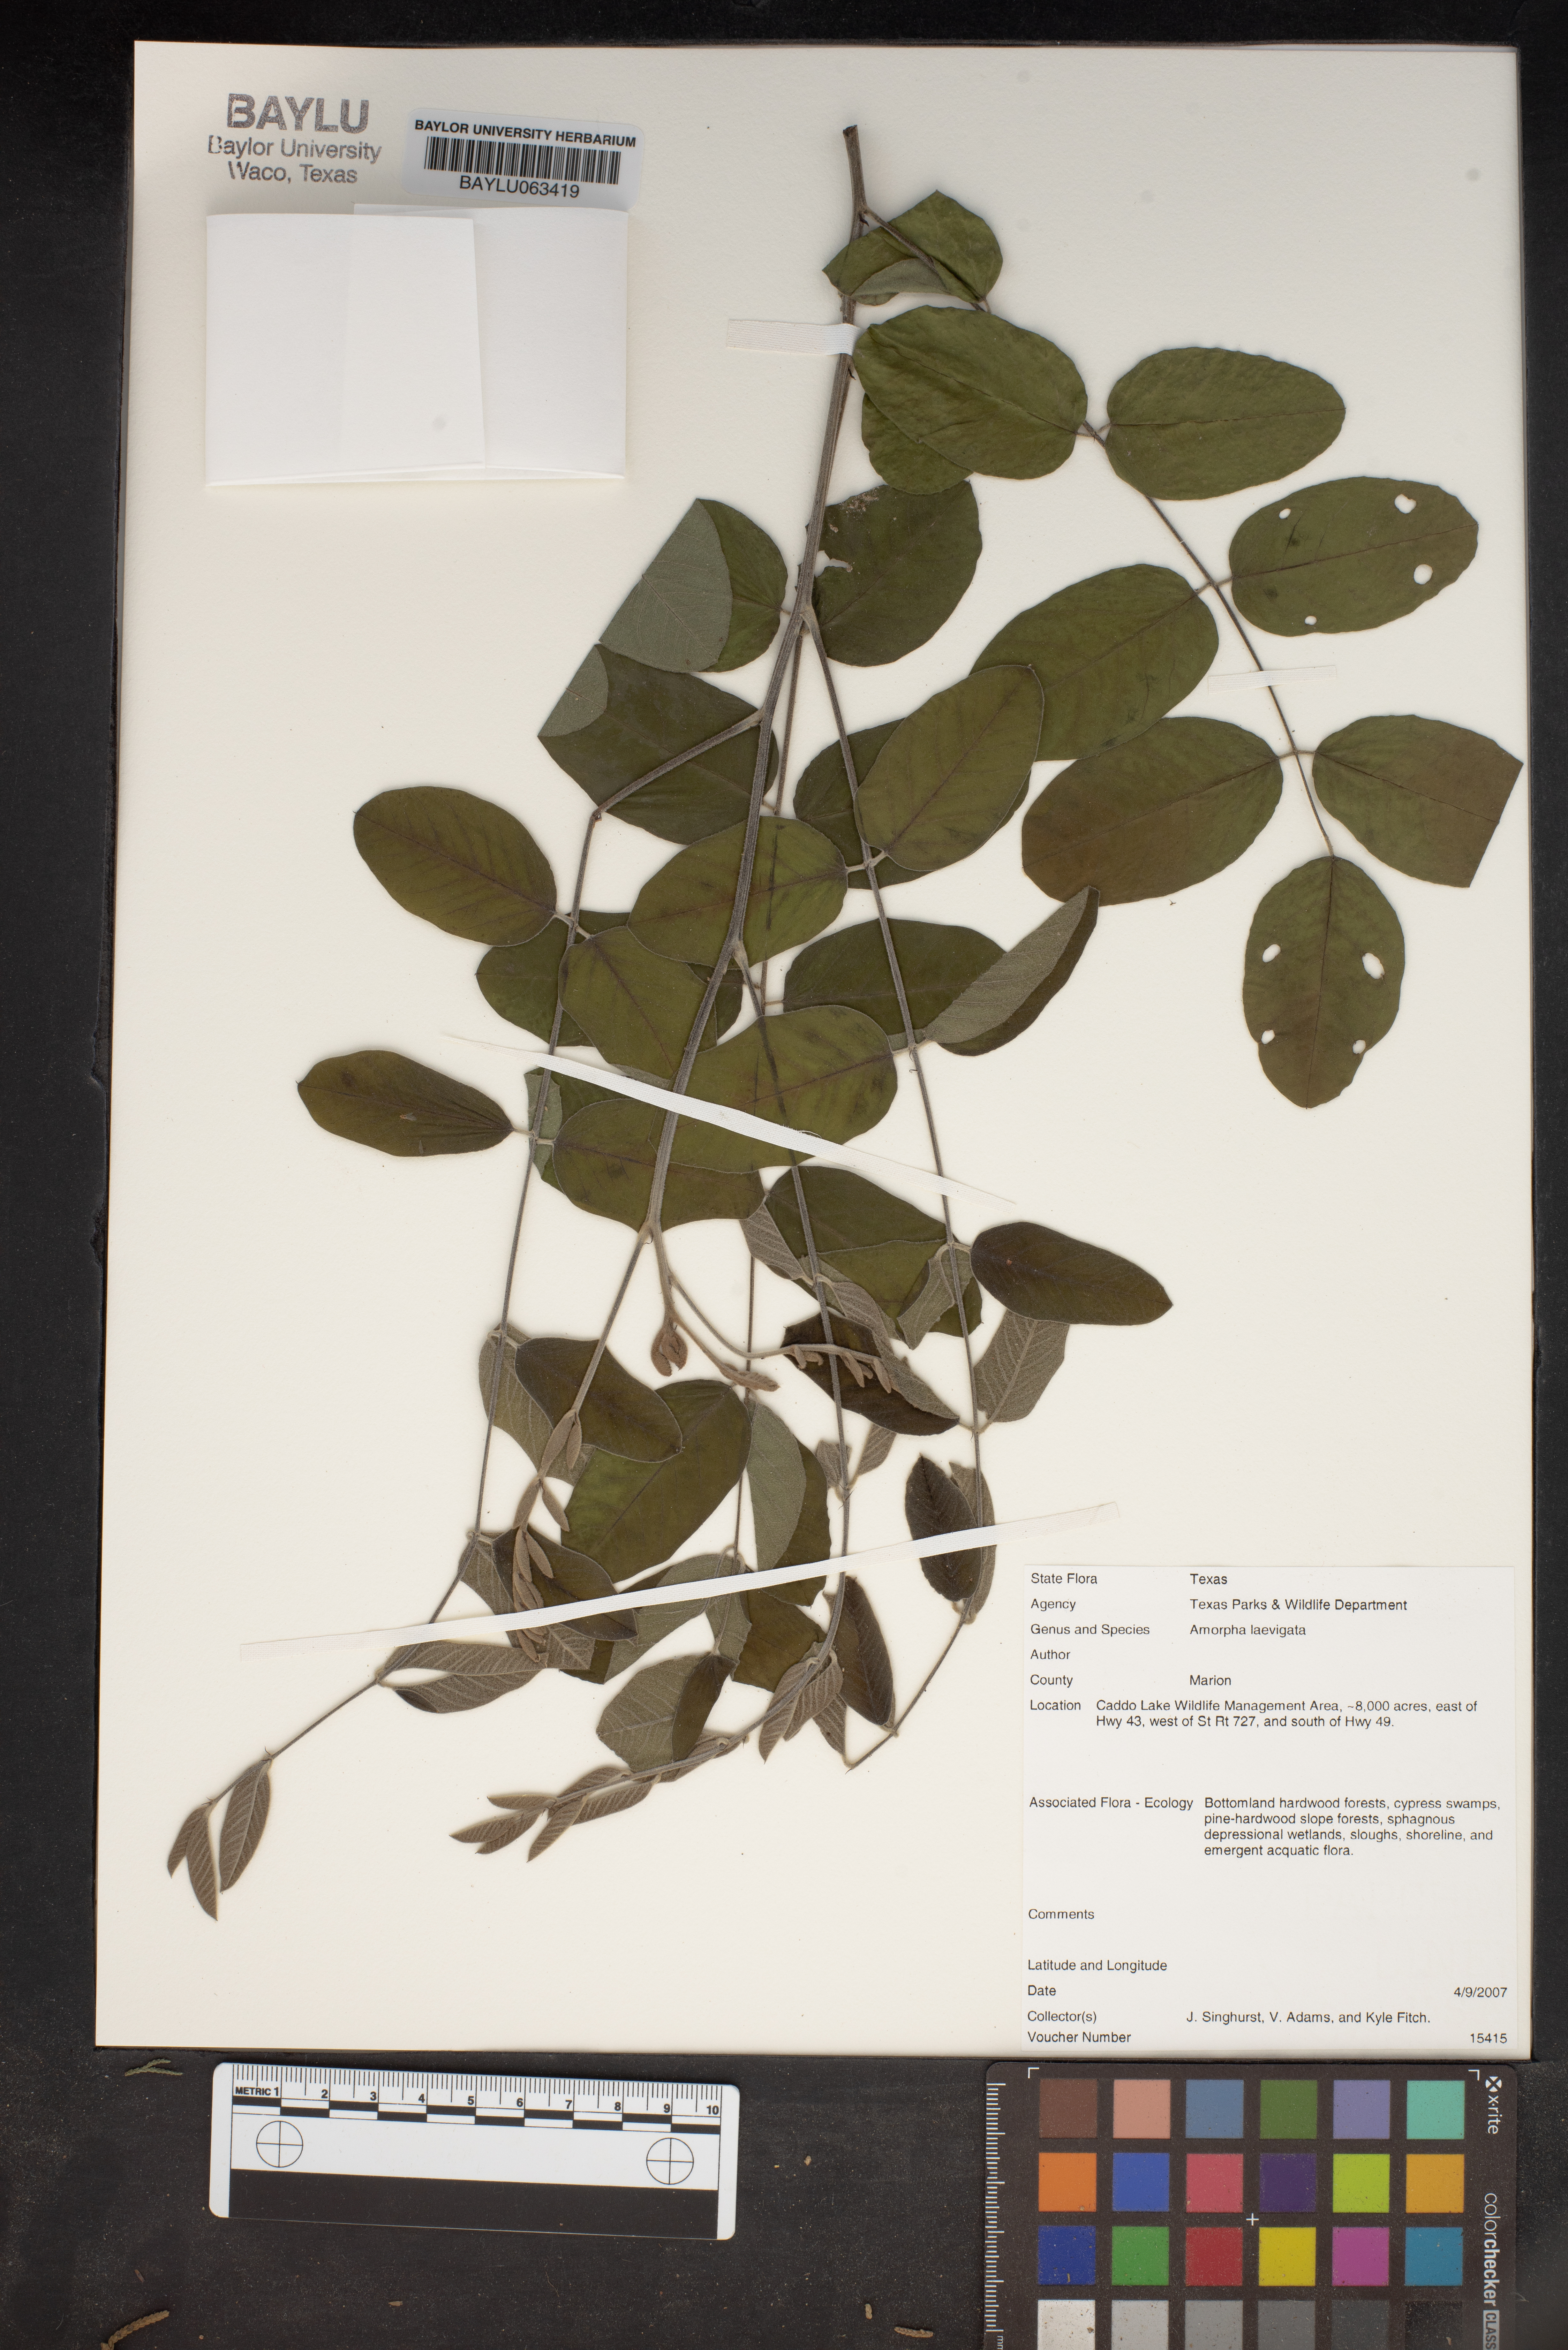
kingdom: Plantae
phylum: Tracheophyta
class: Magnoliopsida
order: Fabales
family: Fabaceae
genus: Amorpha
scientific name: Amorpha laevigata
